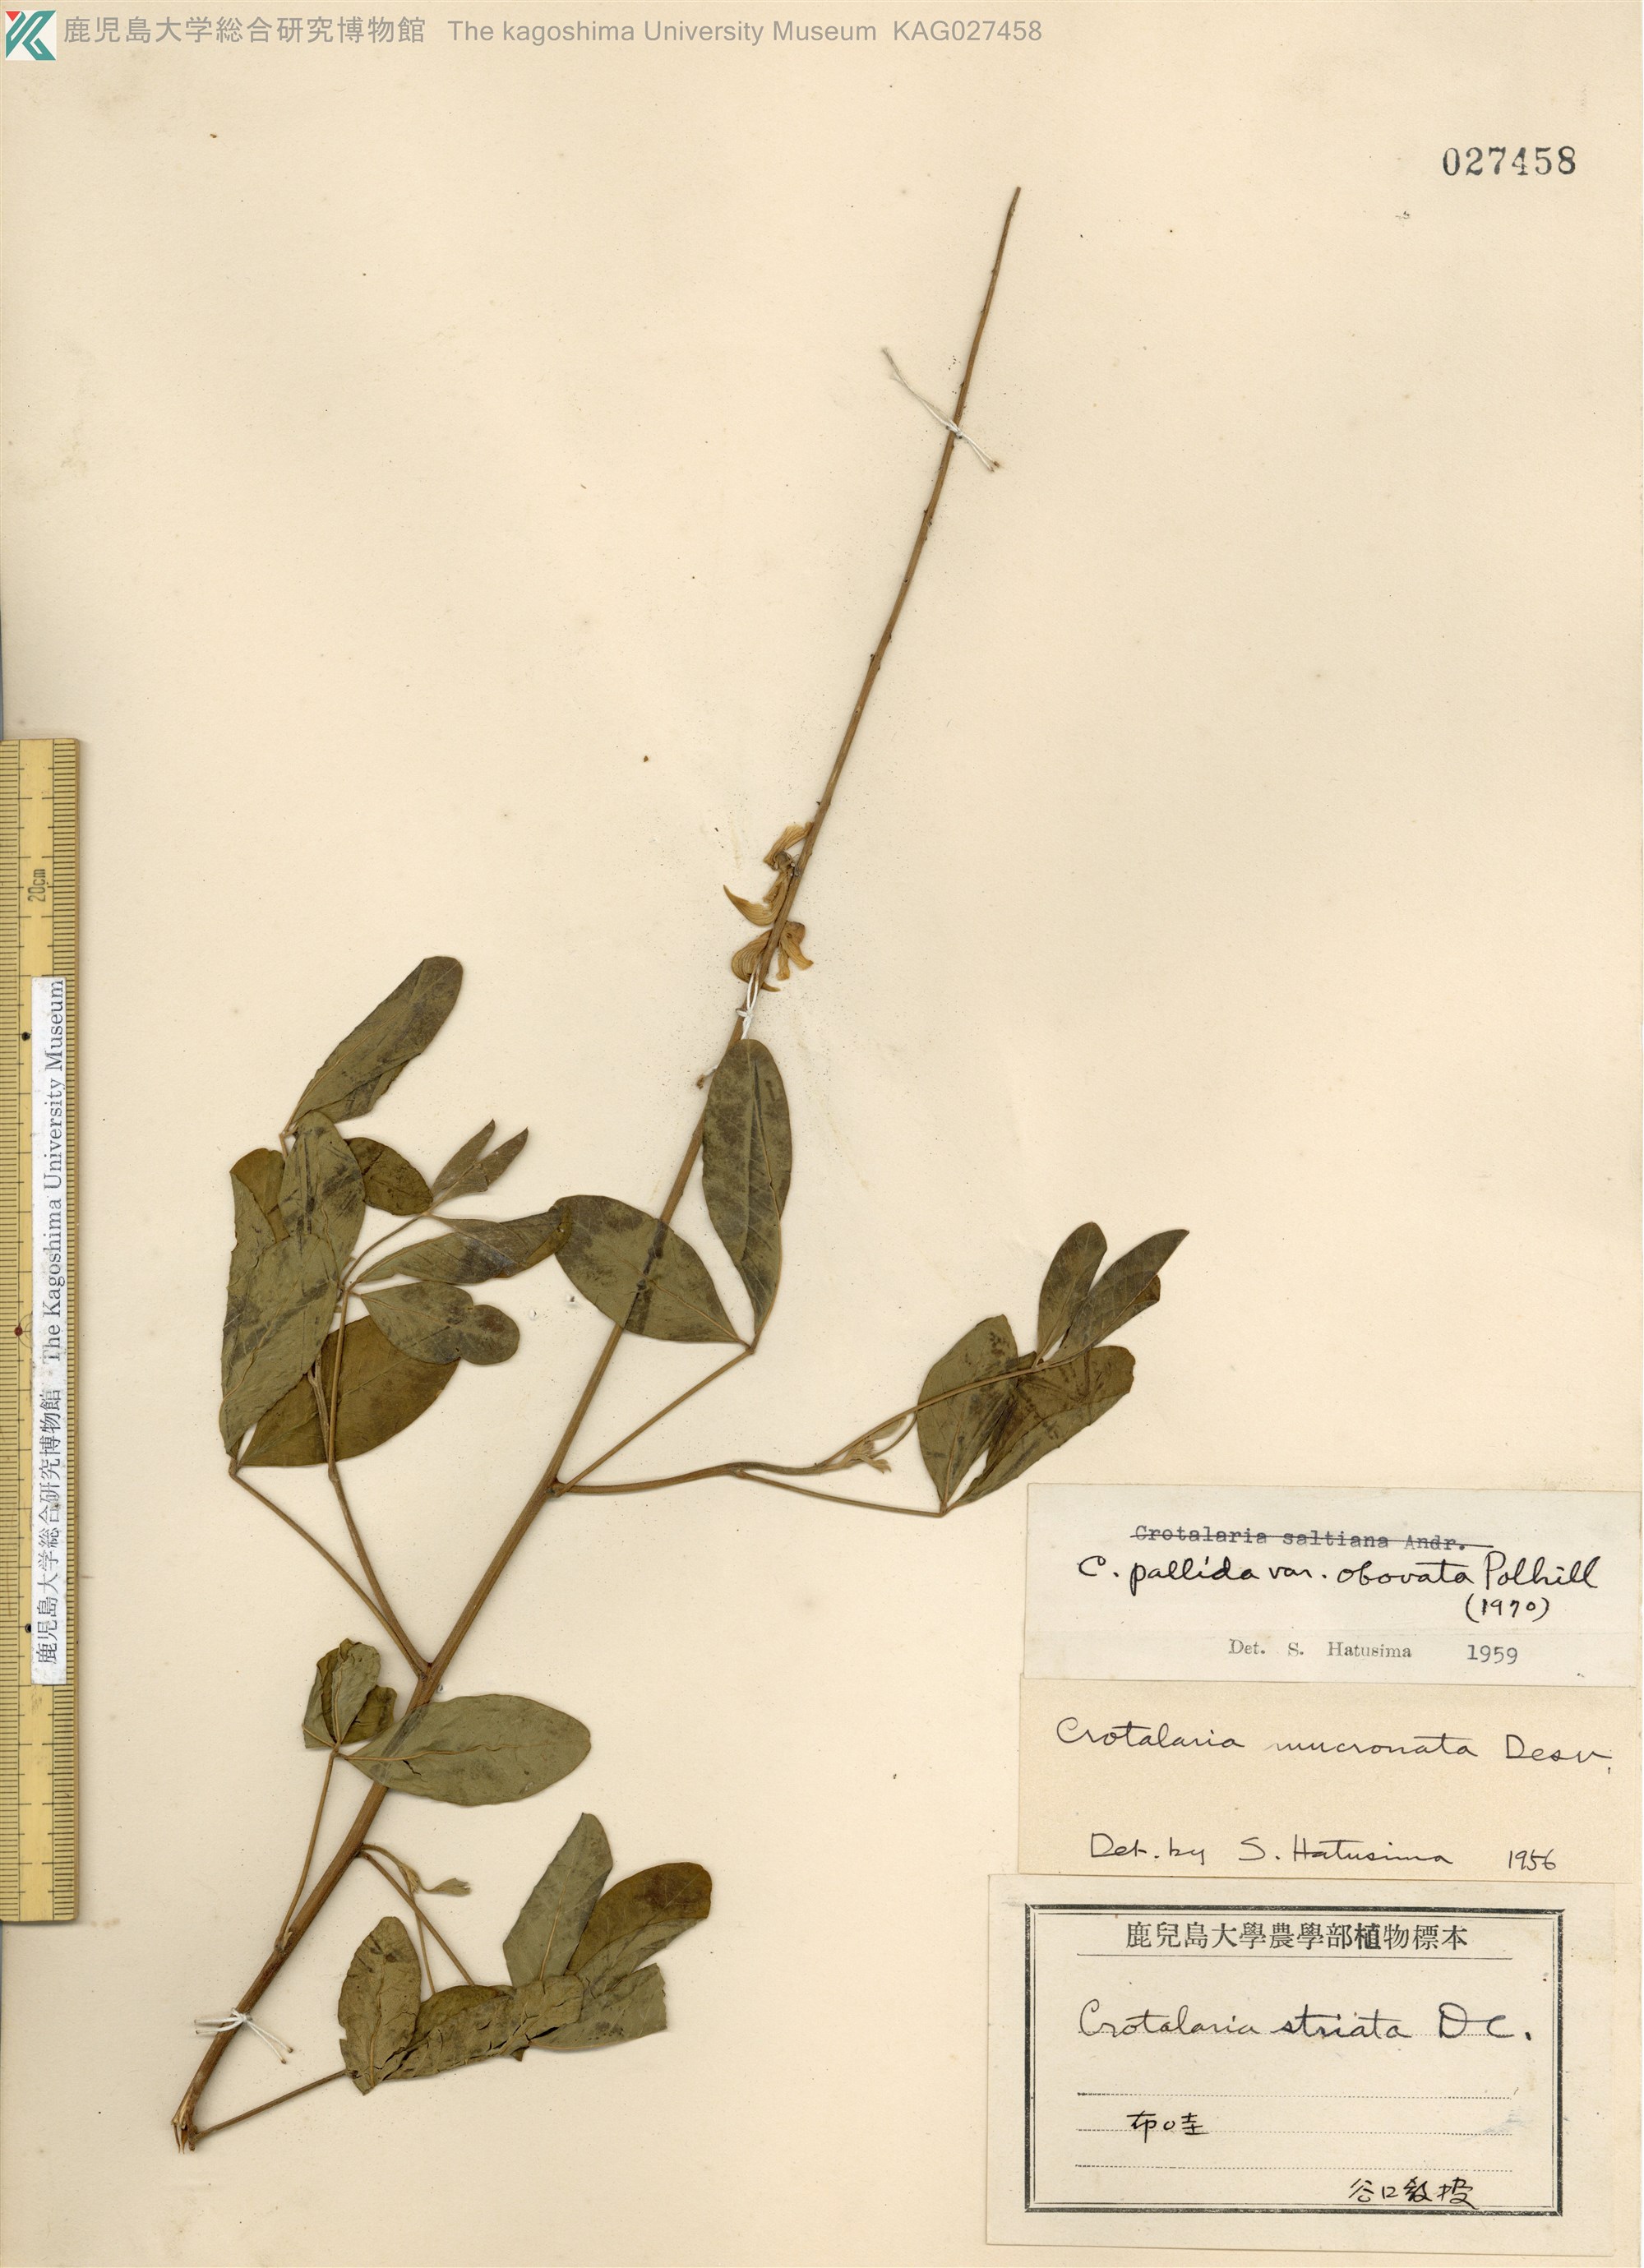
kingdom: Plantae
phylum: Tracheophyta
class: Magnoliopsida
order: Fabales
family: Fabaceae
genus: Crotalaria
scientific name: Crotalaria pallida
